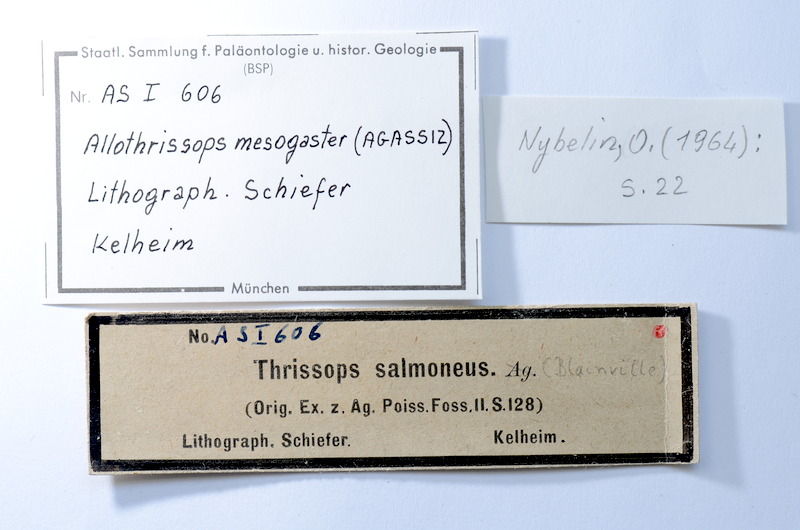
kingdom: Animalia
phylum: Chordata
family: Allothrissopidae
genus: Allothrissops
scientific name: Allothrissops mesogaster
